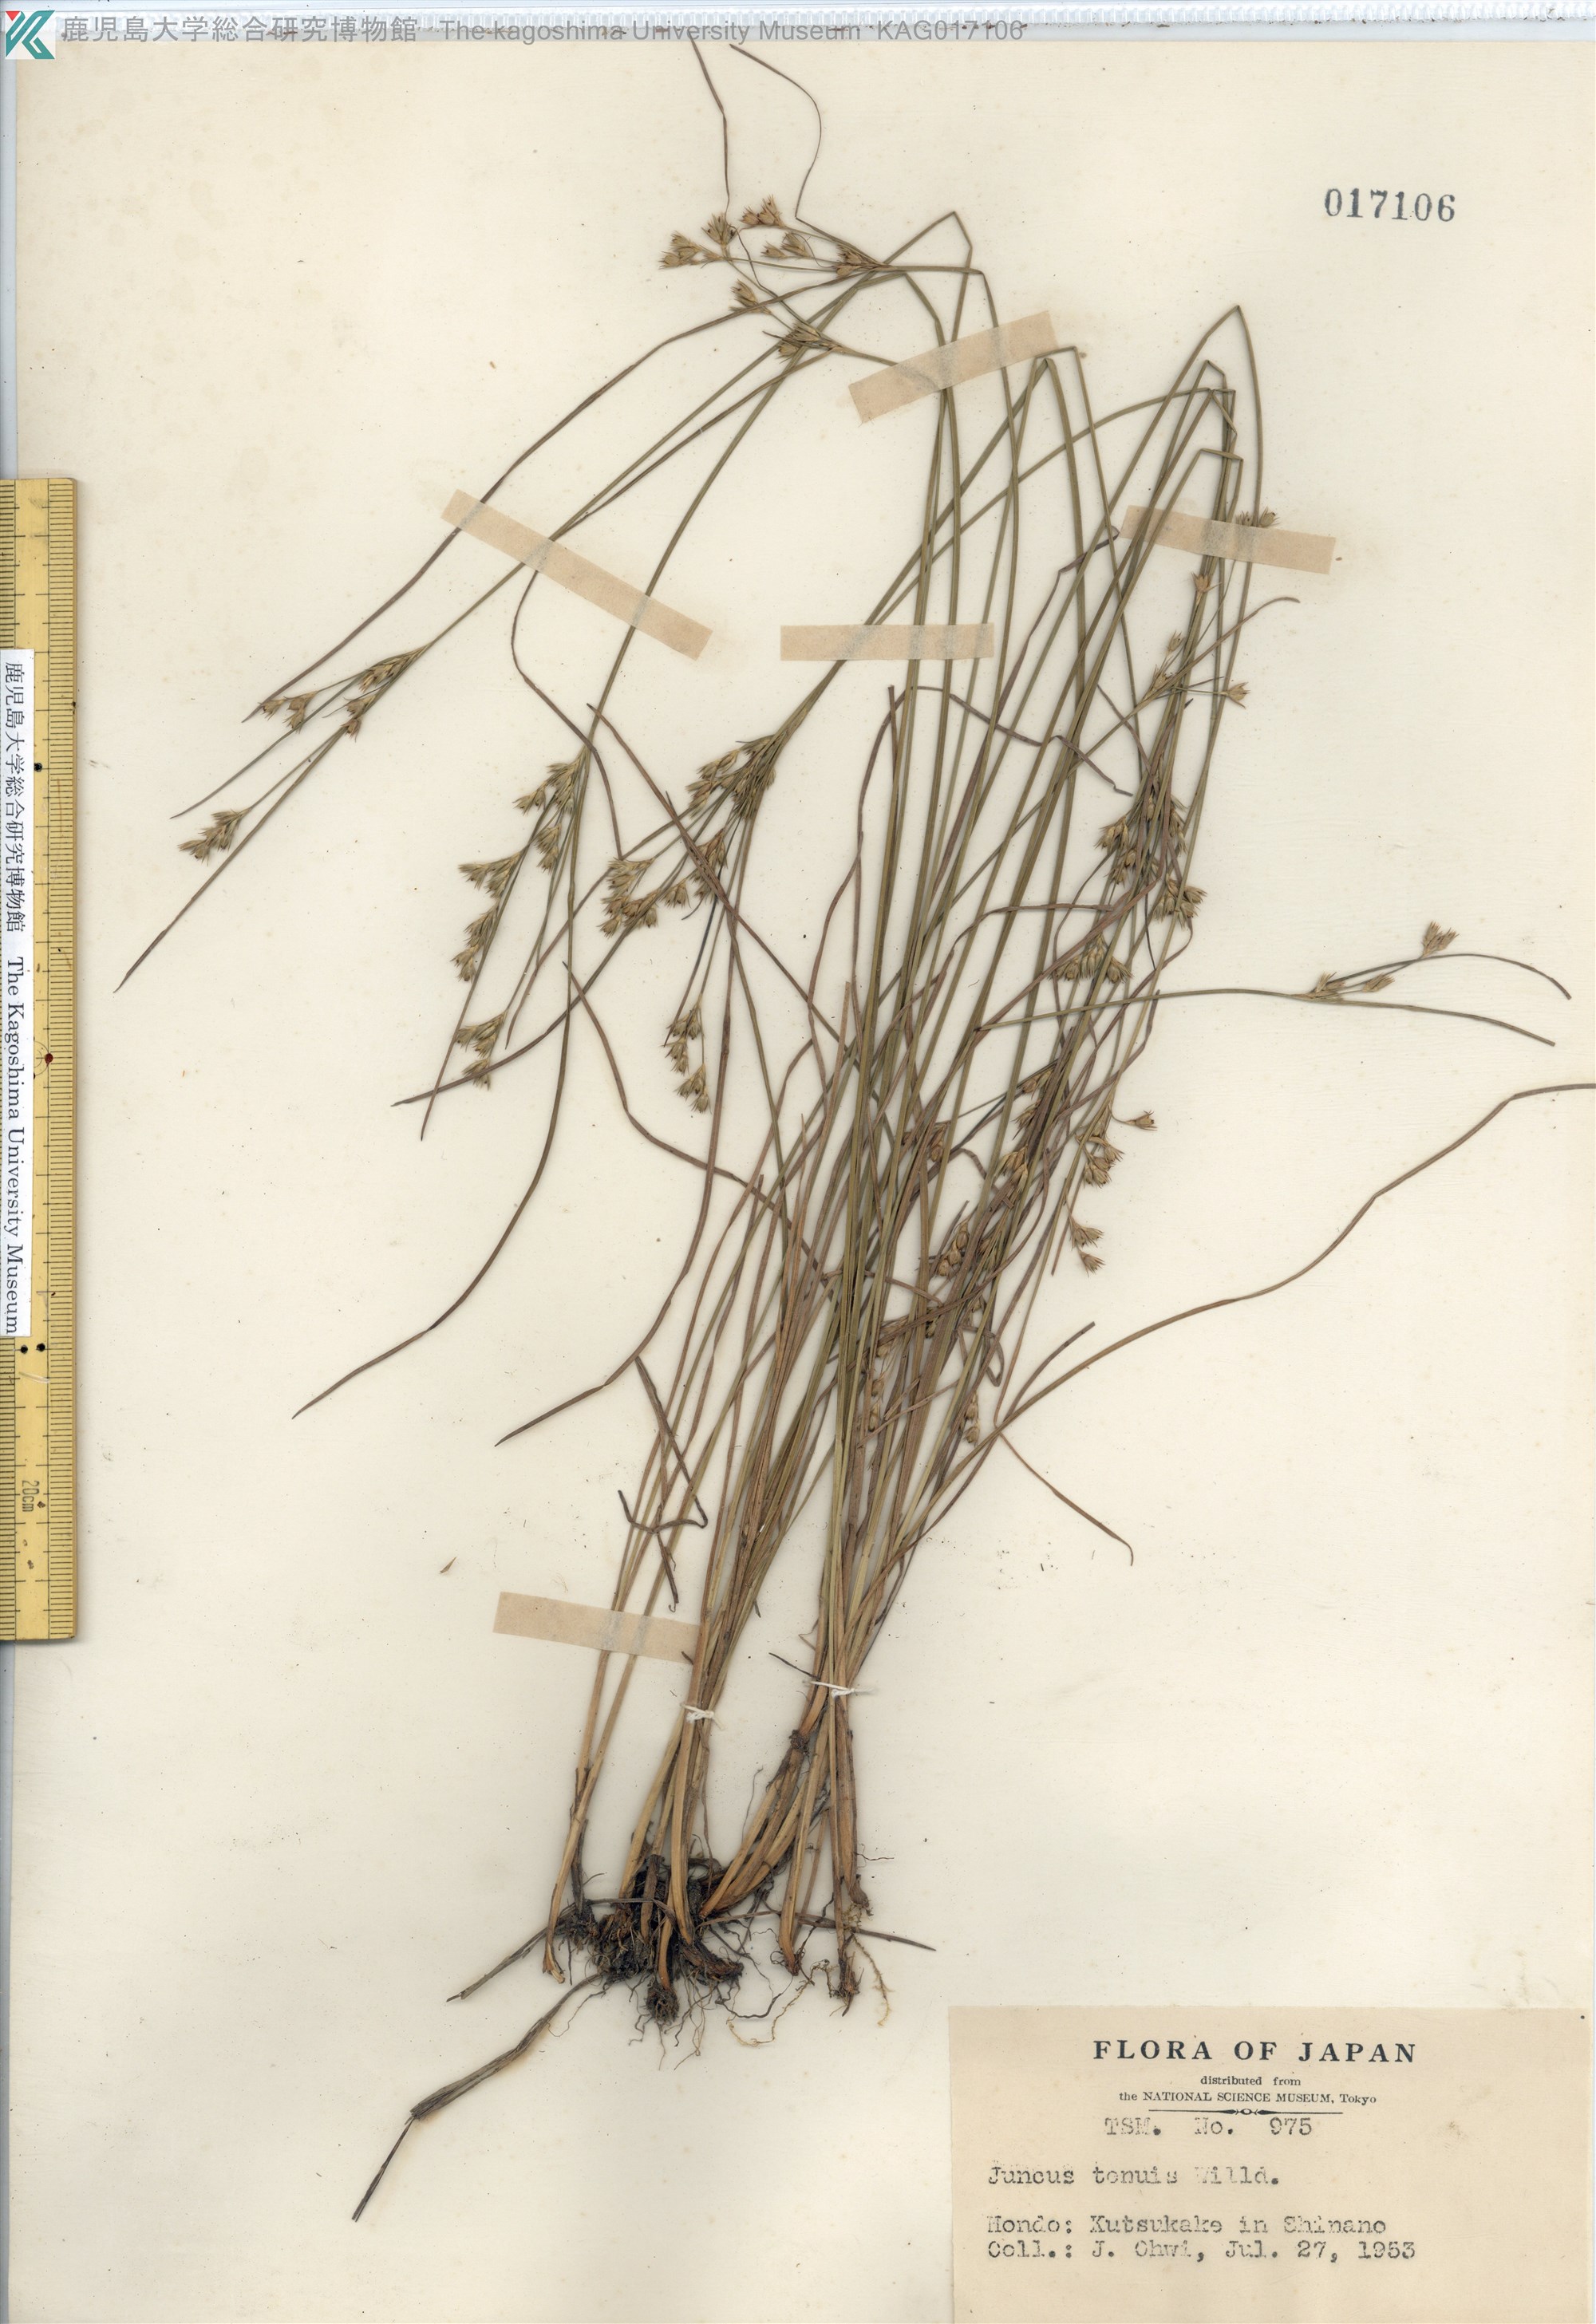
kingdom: Plantae
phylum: Tracheophyta
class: Liliopsida
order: Poales
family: Juncaceae
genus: Juncus
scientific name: Juncus tenuis
